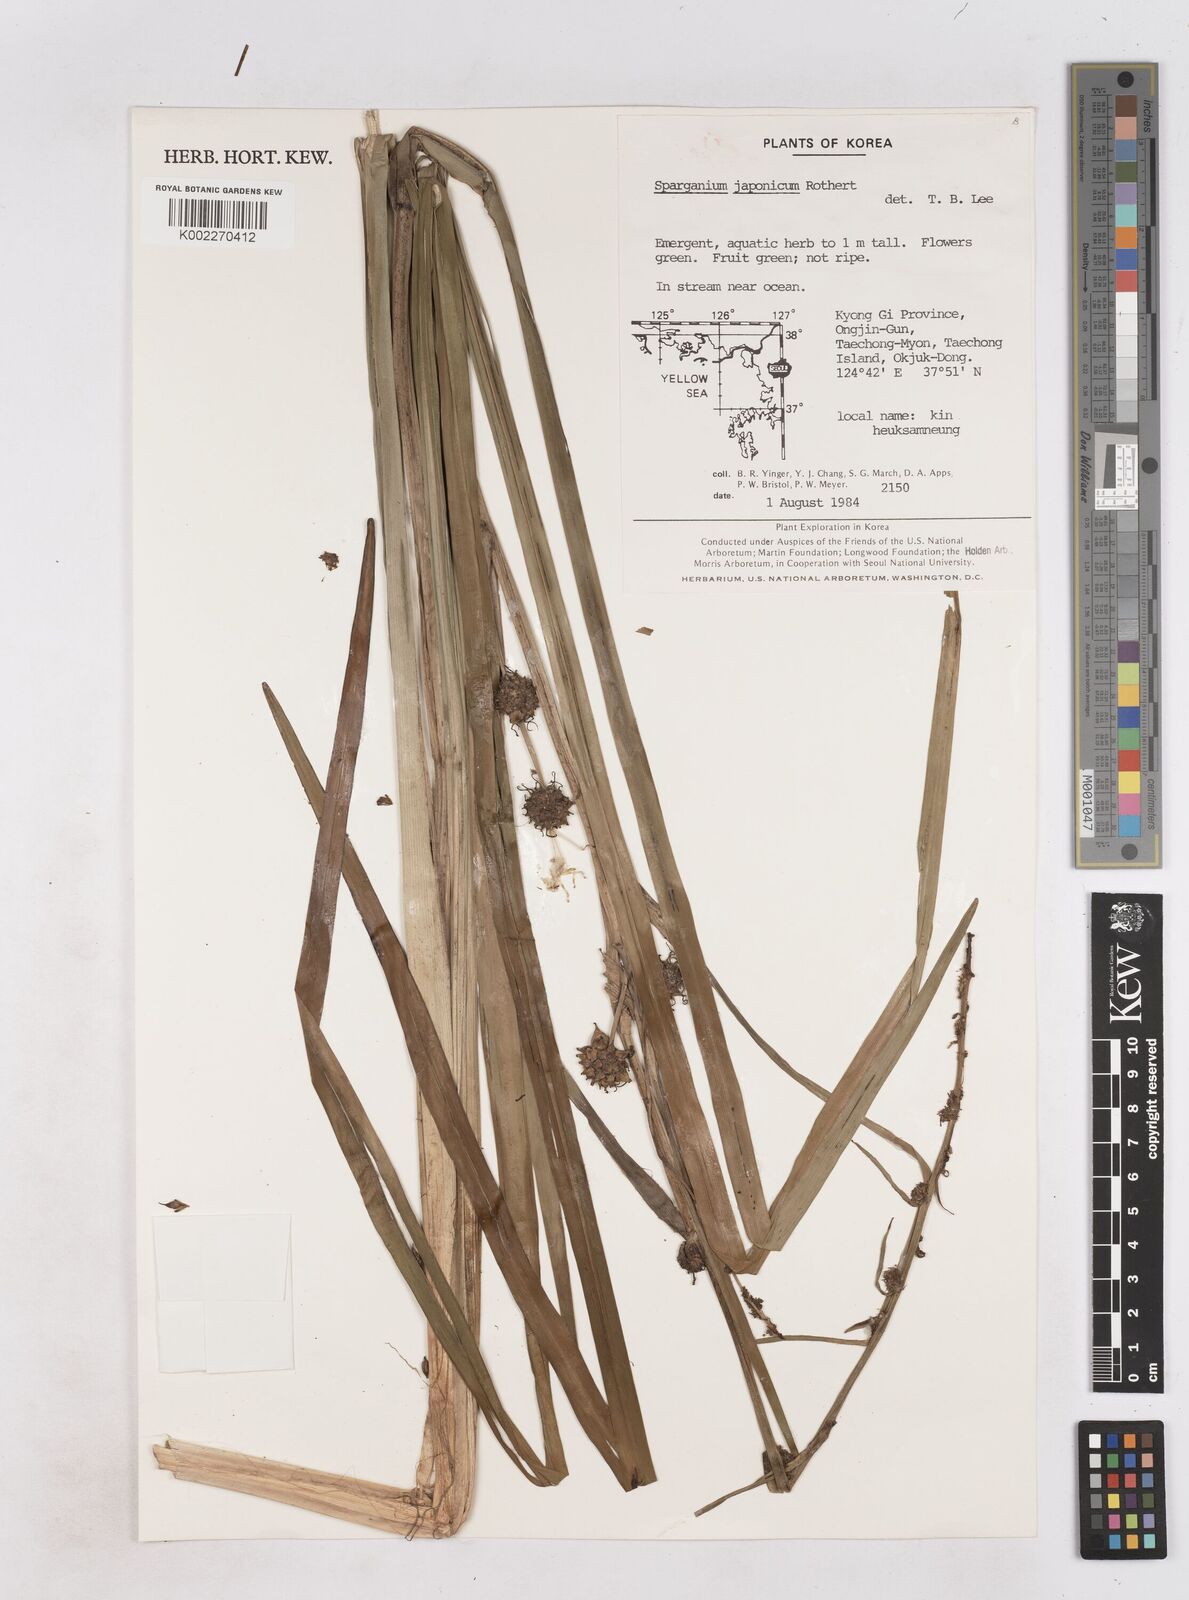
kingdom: Plantae
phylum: Tracheophyta
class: Liliopsida
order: Poales
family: Typhaceae
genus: Sparganium
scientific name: Sparganium japonicum
